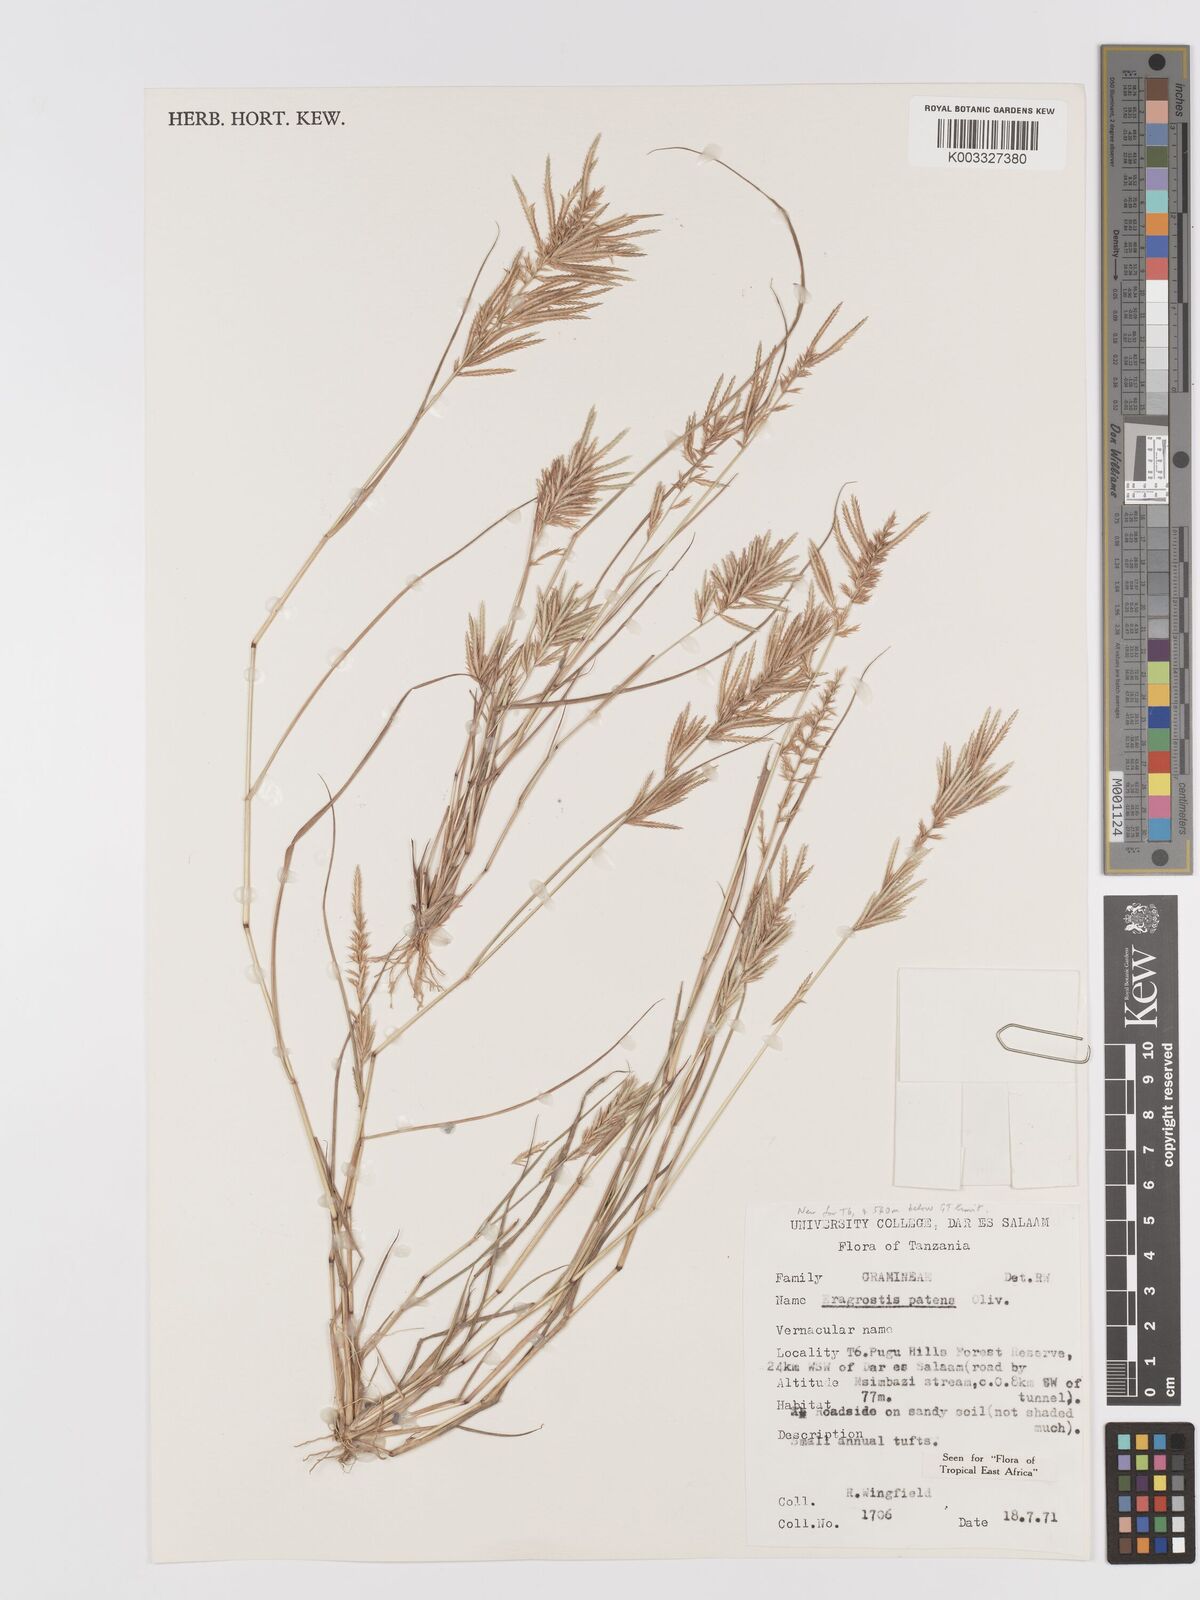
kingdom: Plantae
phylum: Tracheophyta
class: Liliopsida
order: Poales
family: Poaceae
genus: Eragrostis
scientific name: Eragrostis patens
